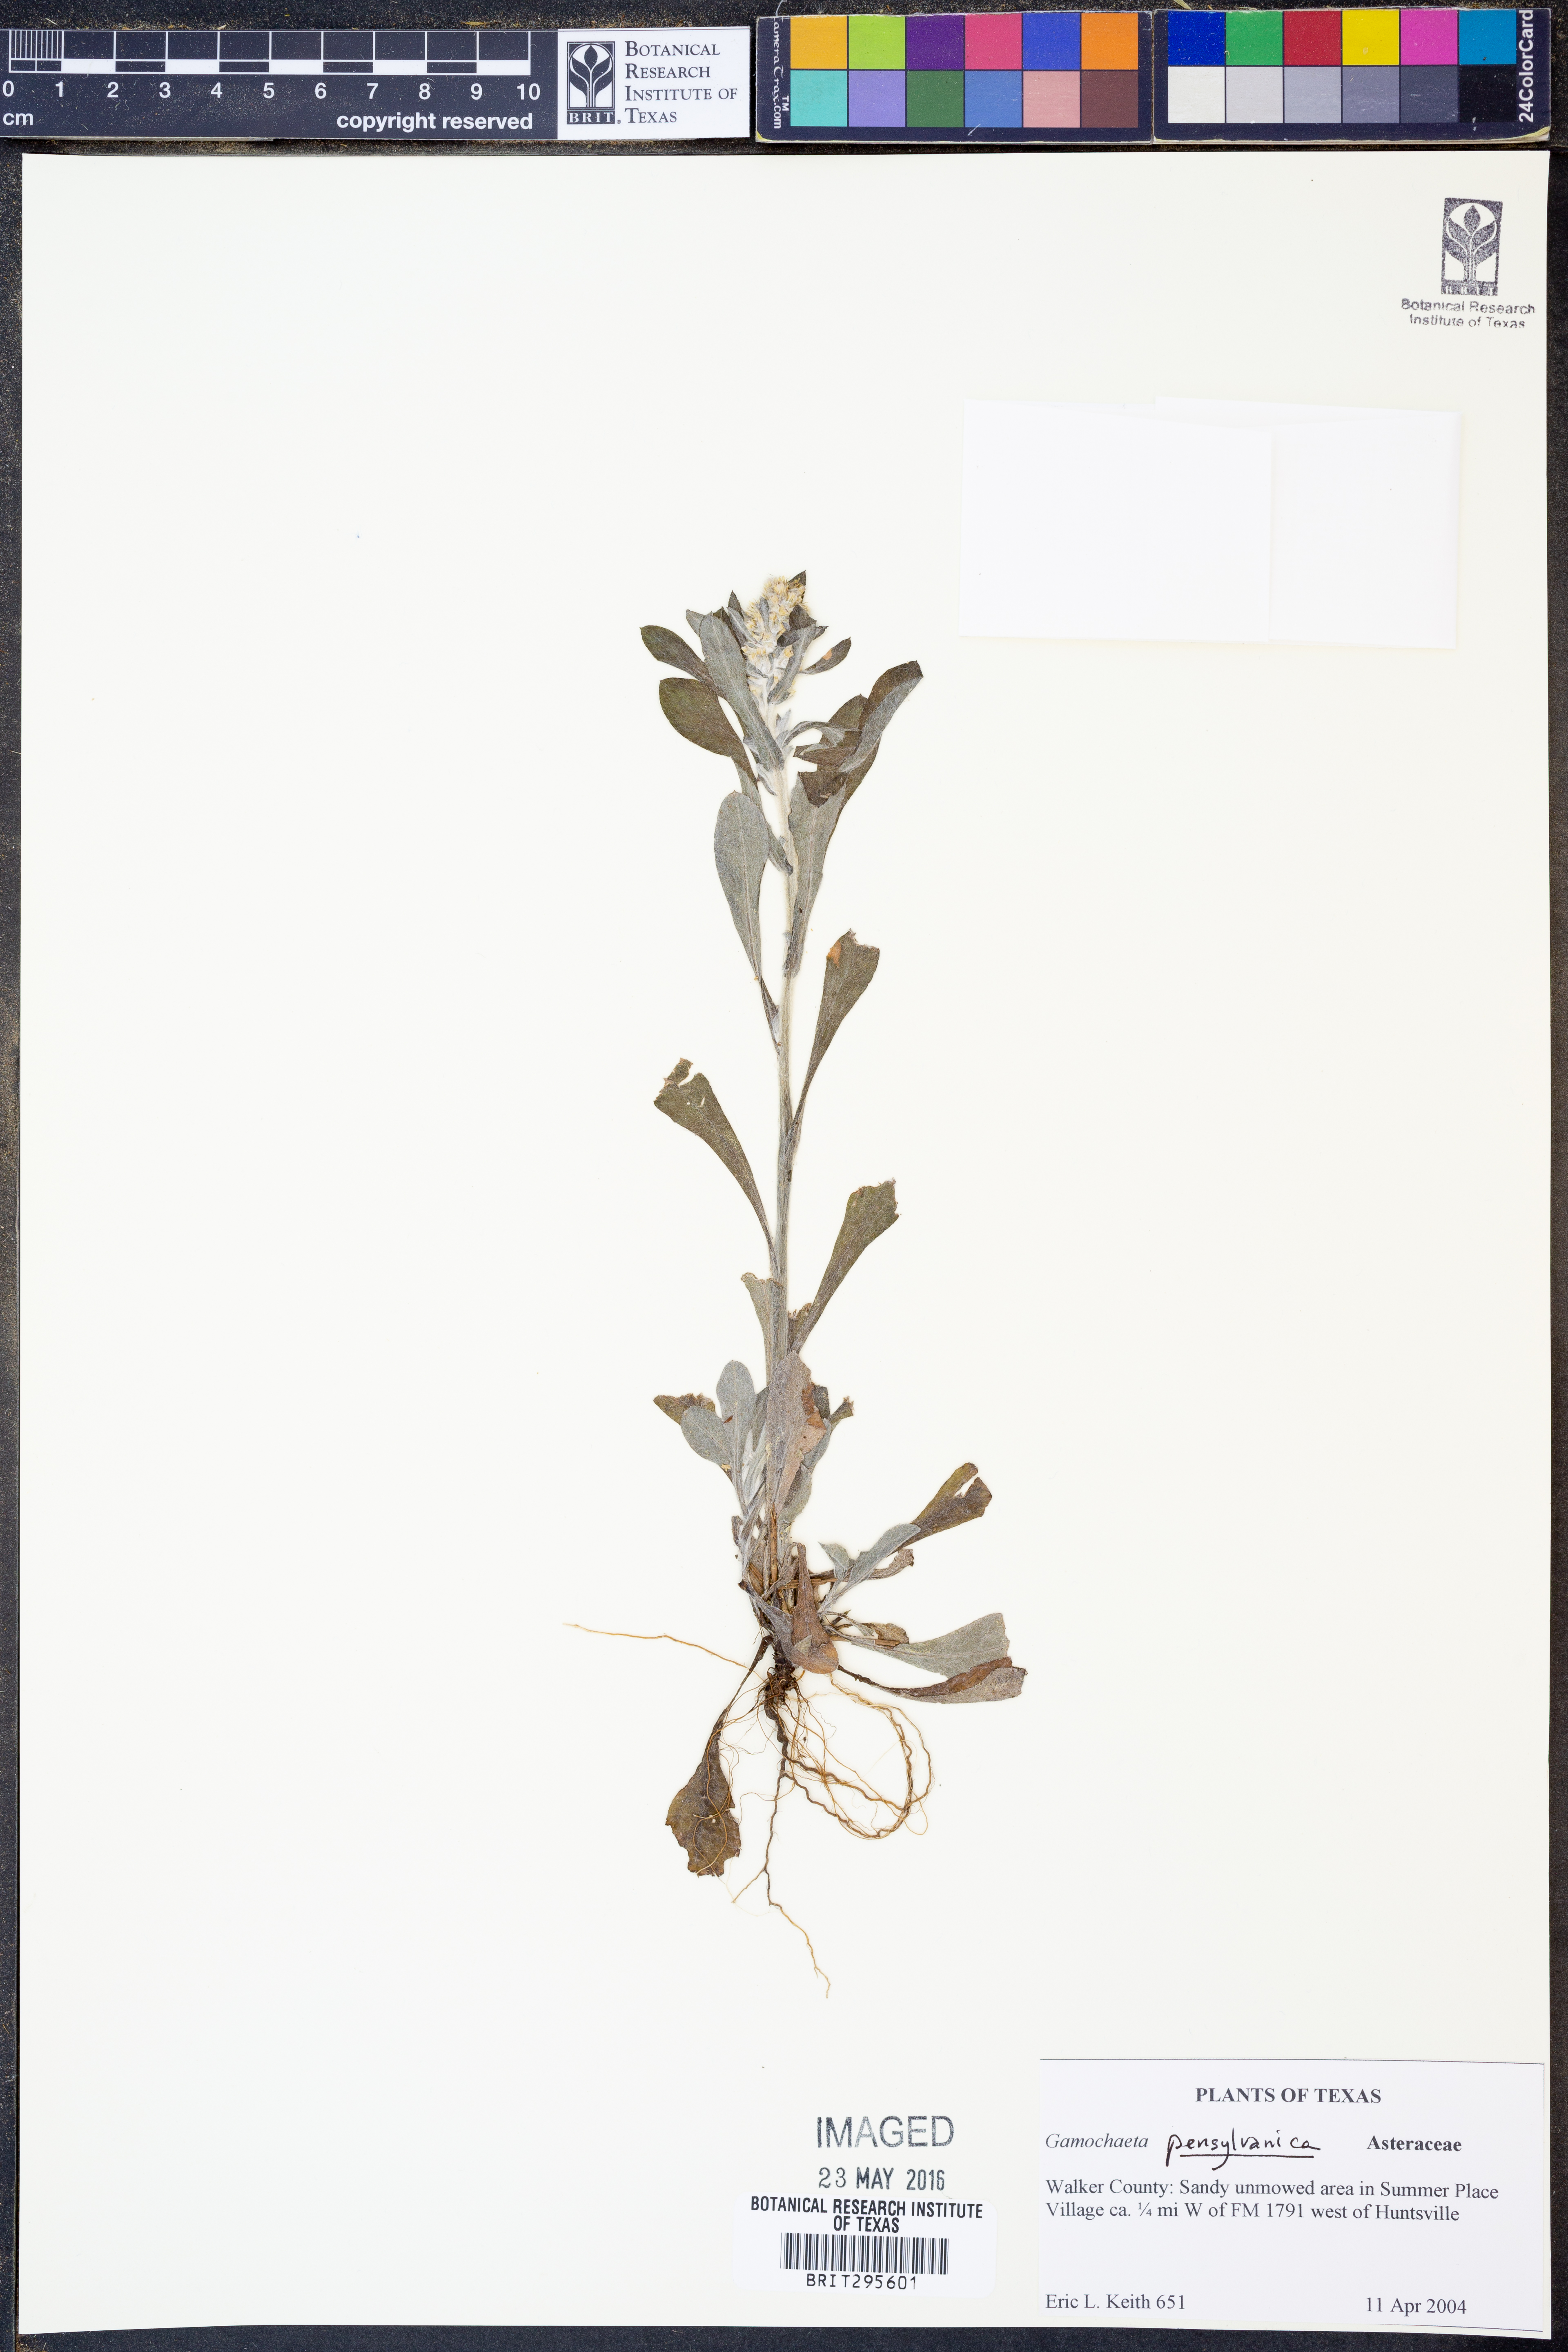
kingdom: Plantae
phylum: Tracheophyta
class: Magnoliopsida
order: Asterales
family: Asteraceae
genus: Gamochaeta
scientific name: Gamochaeta pensylvanica
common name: Pennsylvania everlasting
